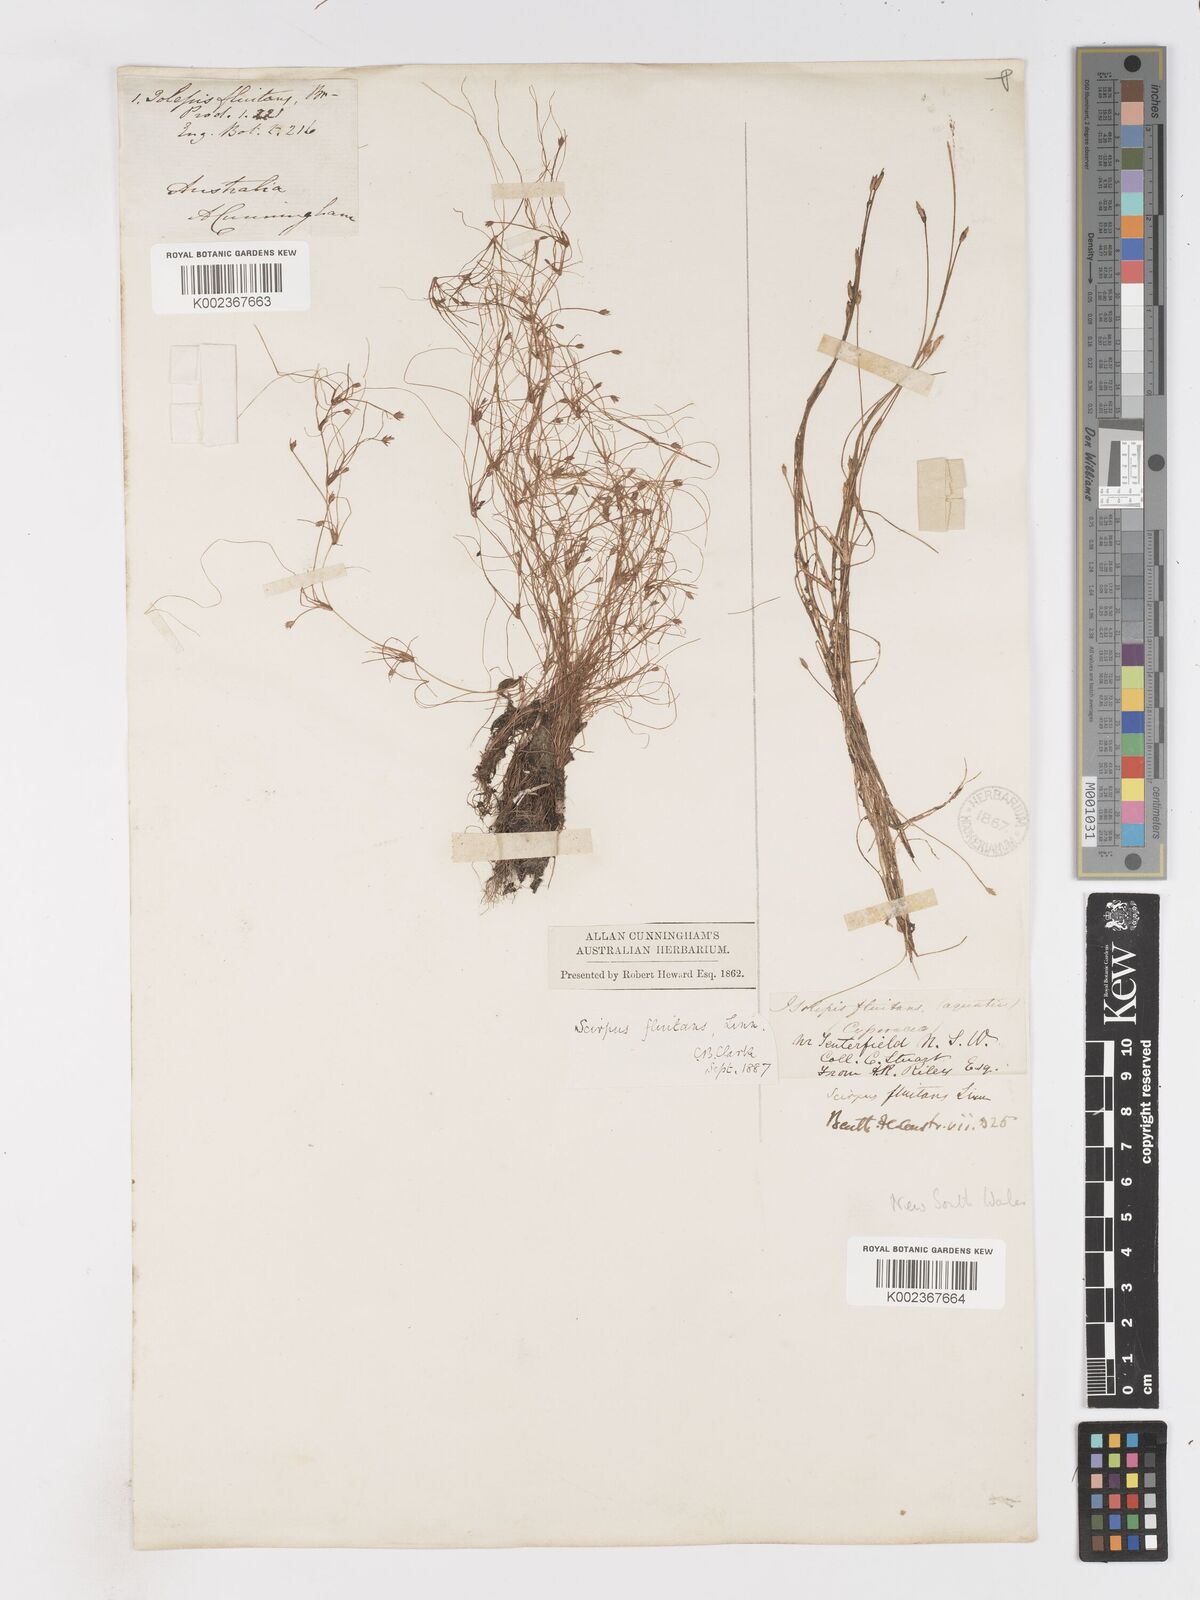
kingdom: Plantae
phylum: Tracheophyta
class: Liliopsida
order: Poales
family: Cyperaceae
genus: Isolepis
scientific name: Isolepis fluitans
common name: Floating club-rush
